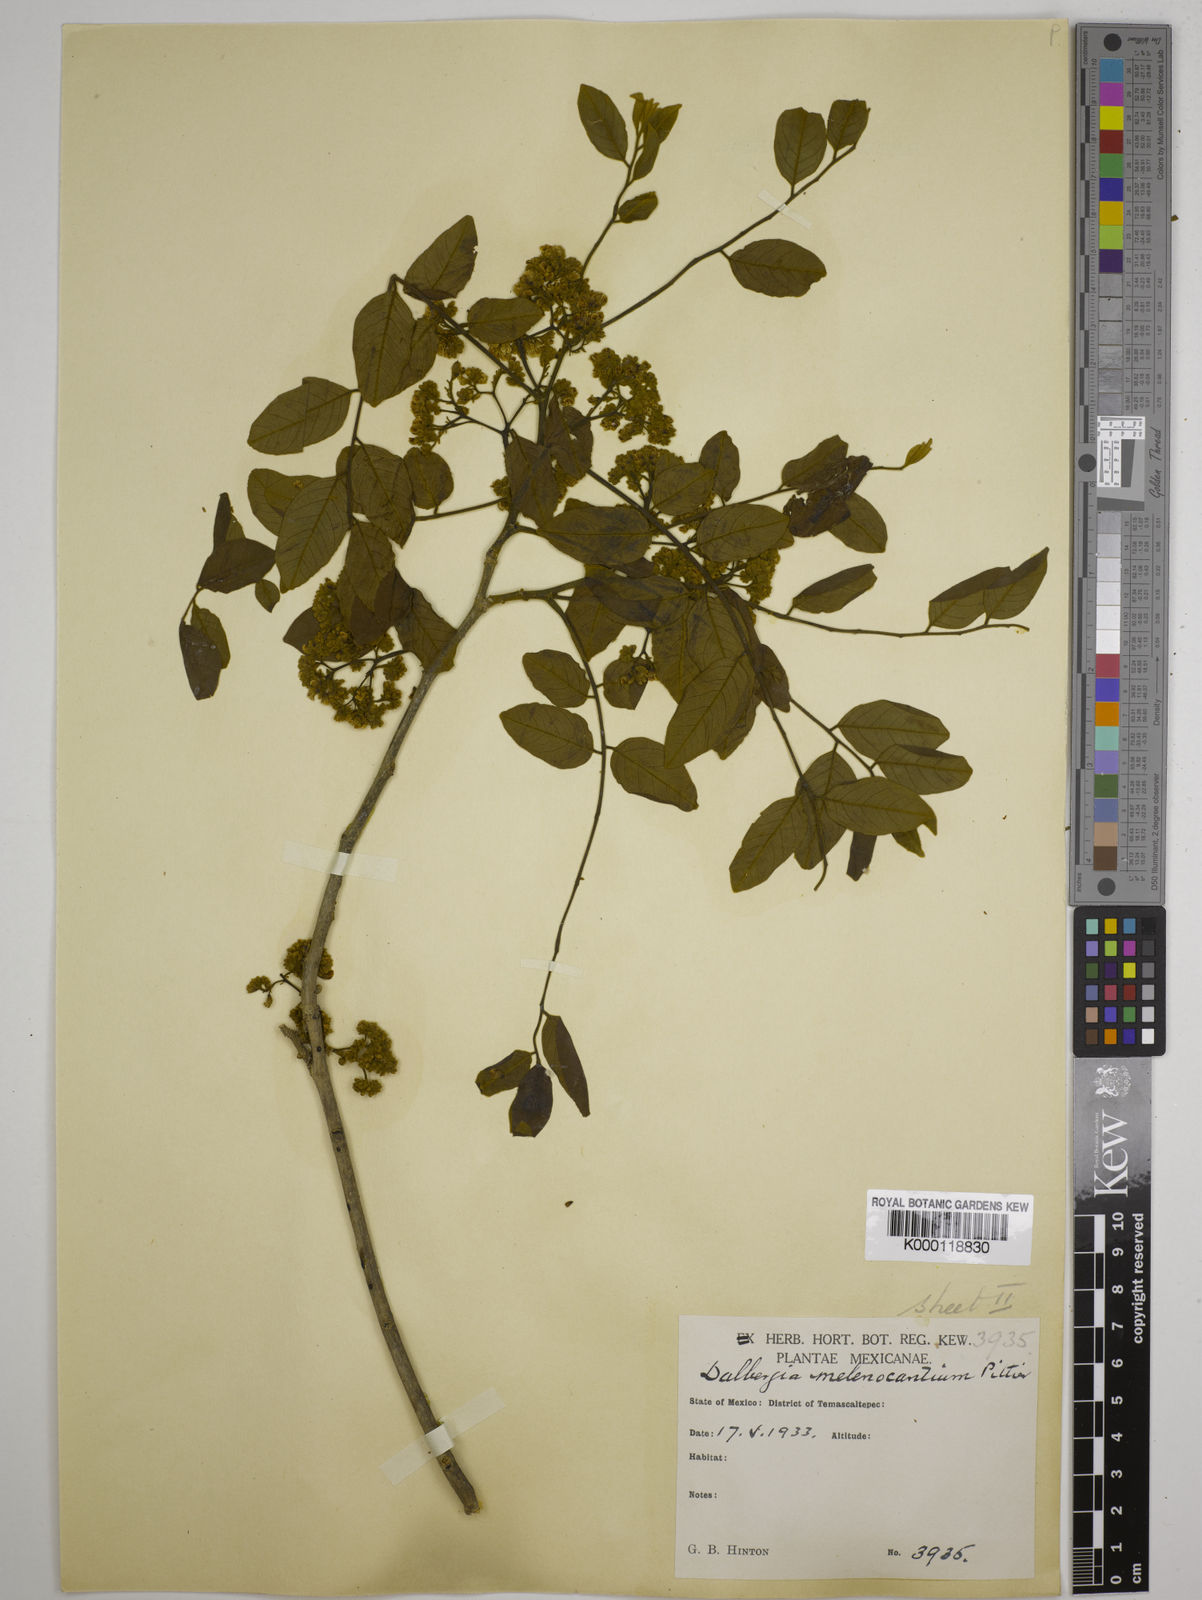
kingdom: Plantae
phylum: Tracheophyta
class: Magnoliopsida
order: Fabales
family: Fabaceae
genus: Dalbergia
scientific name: Dalbergia melanocardium
